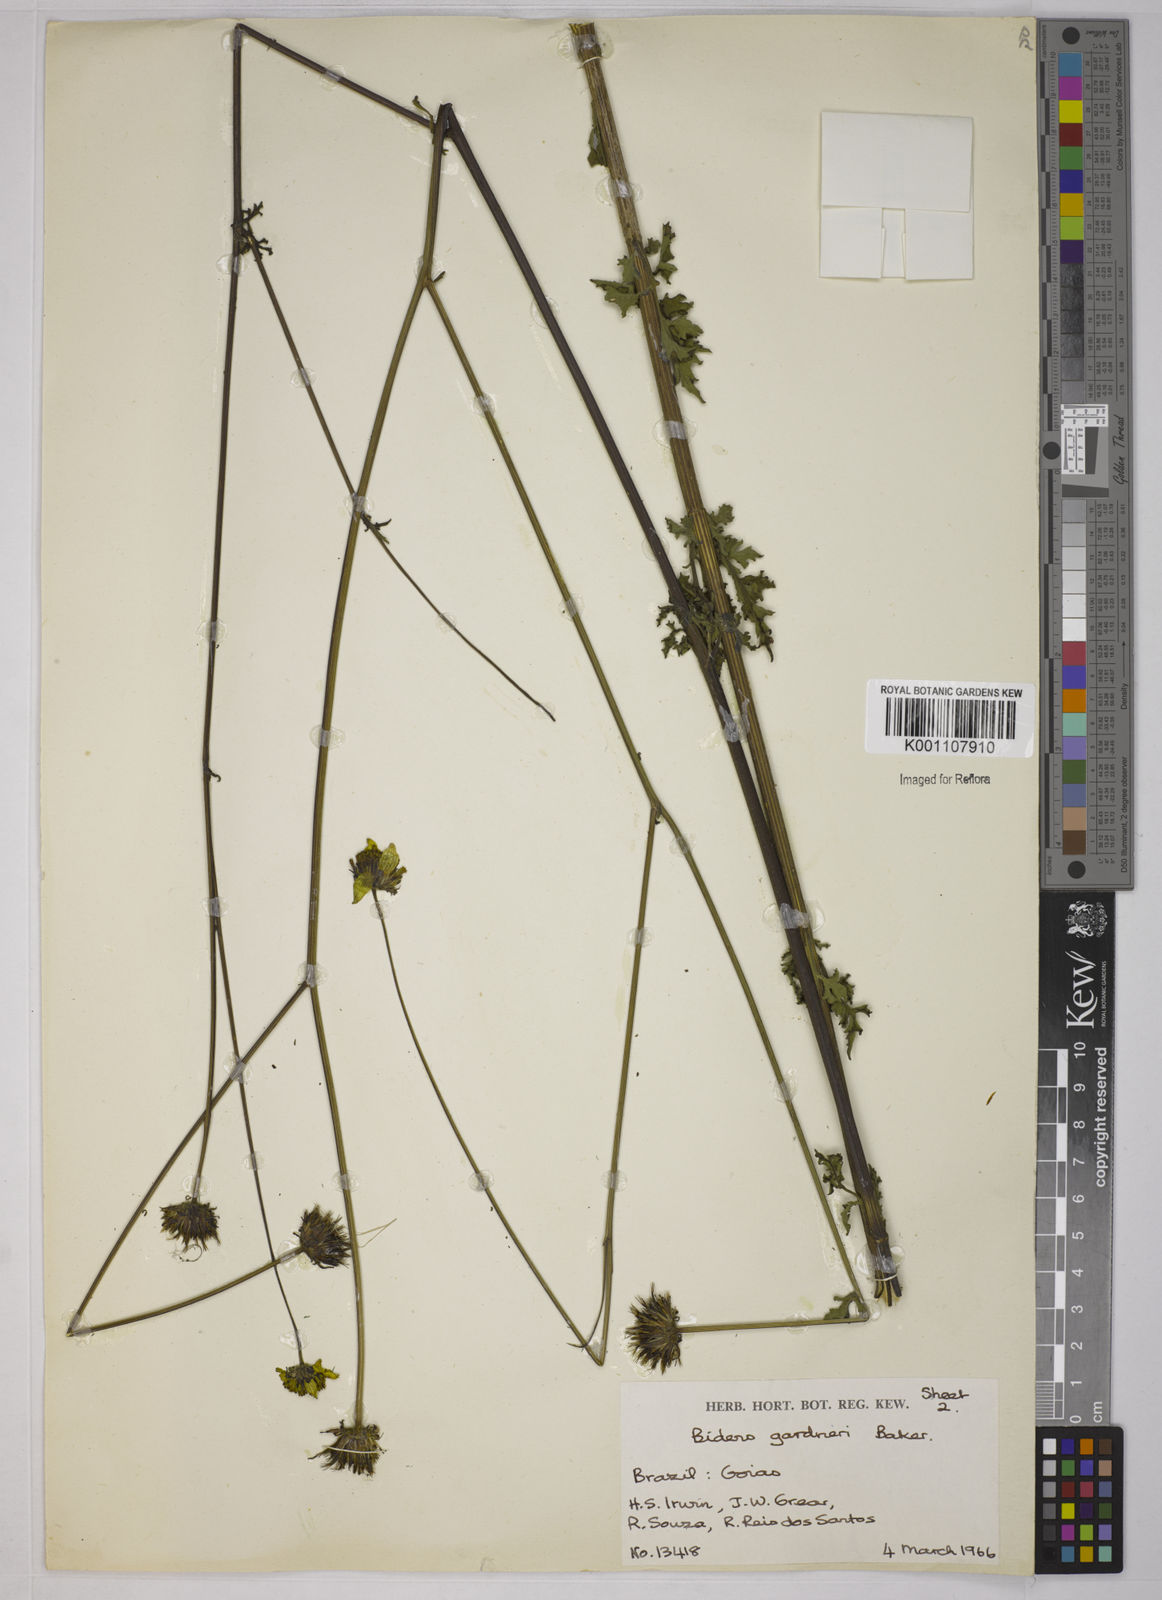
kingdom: Plantae
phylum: Tracheophyta
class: Magnoliopsida
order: Asterales
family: Asteraceae
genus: Bidens
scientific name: Bidens gardneri
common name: Ridge beggartick
